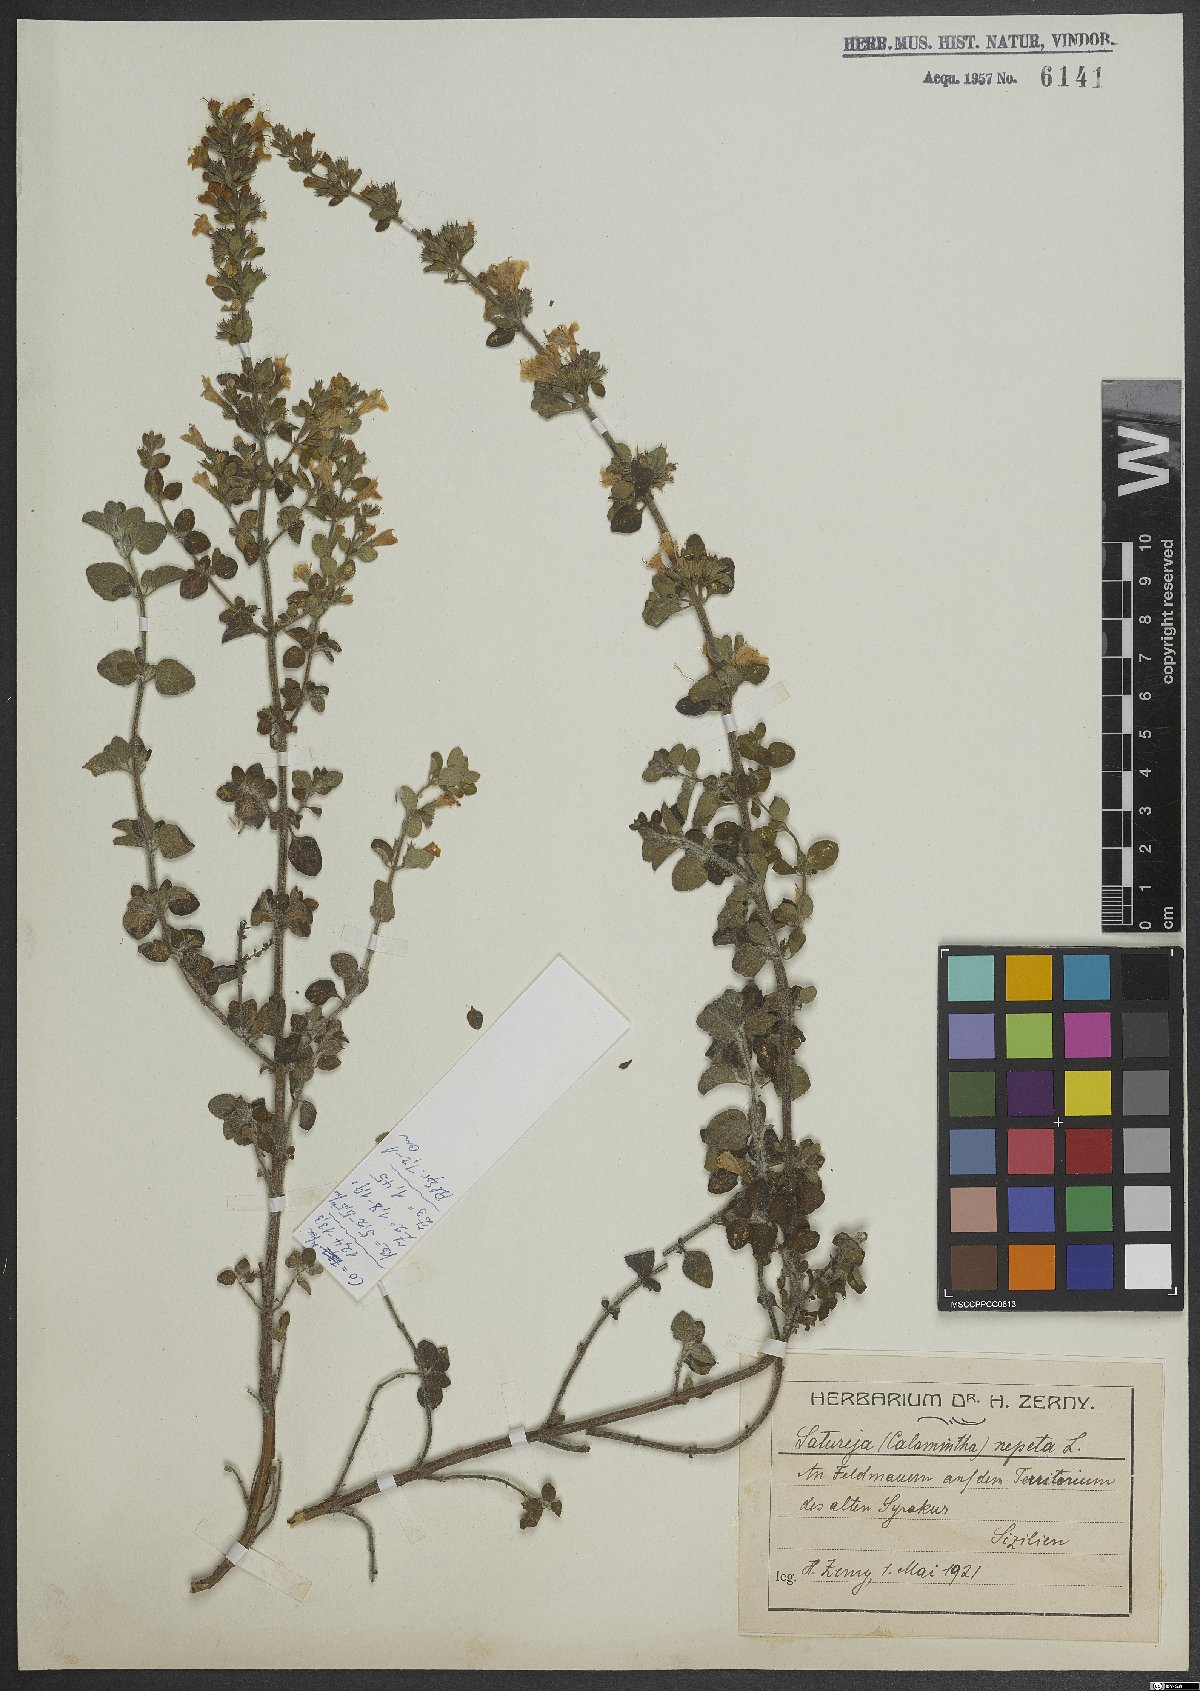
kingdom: Plantae
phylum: Tracheophyta
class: Magnoliopsida
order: Lamiales
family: Lamiaceae
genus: Clinopodium
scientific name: Clinopodium nepeta
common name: Lesser calamint
